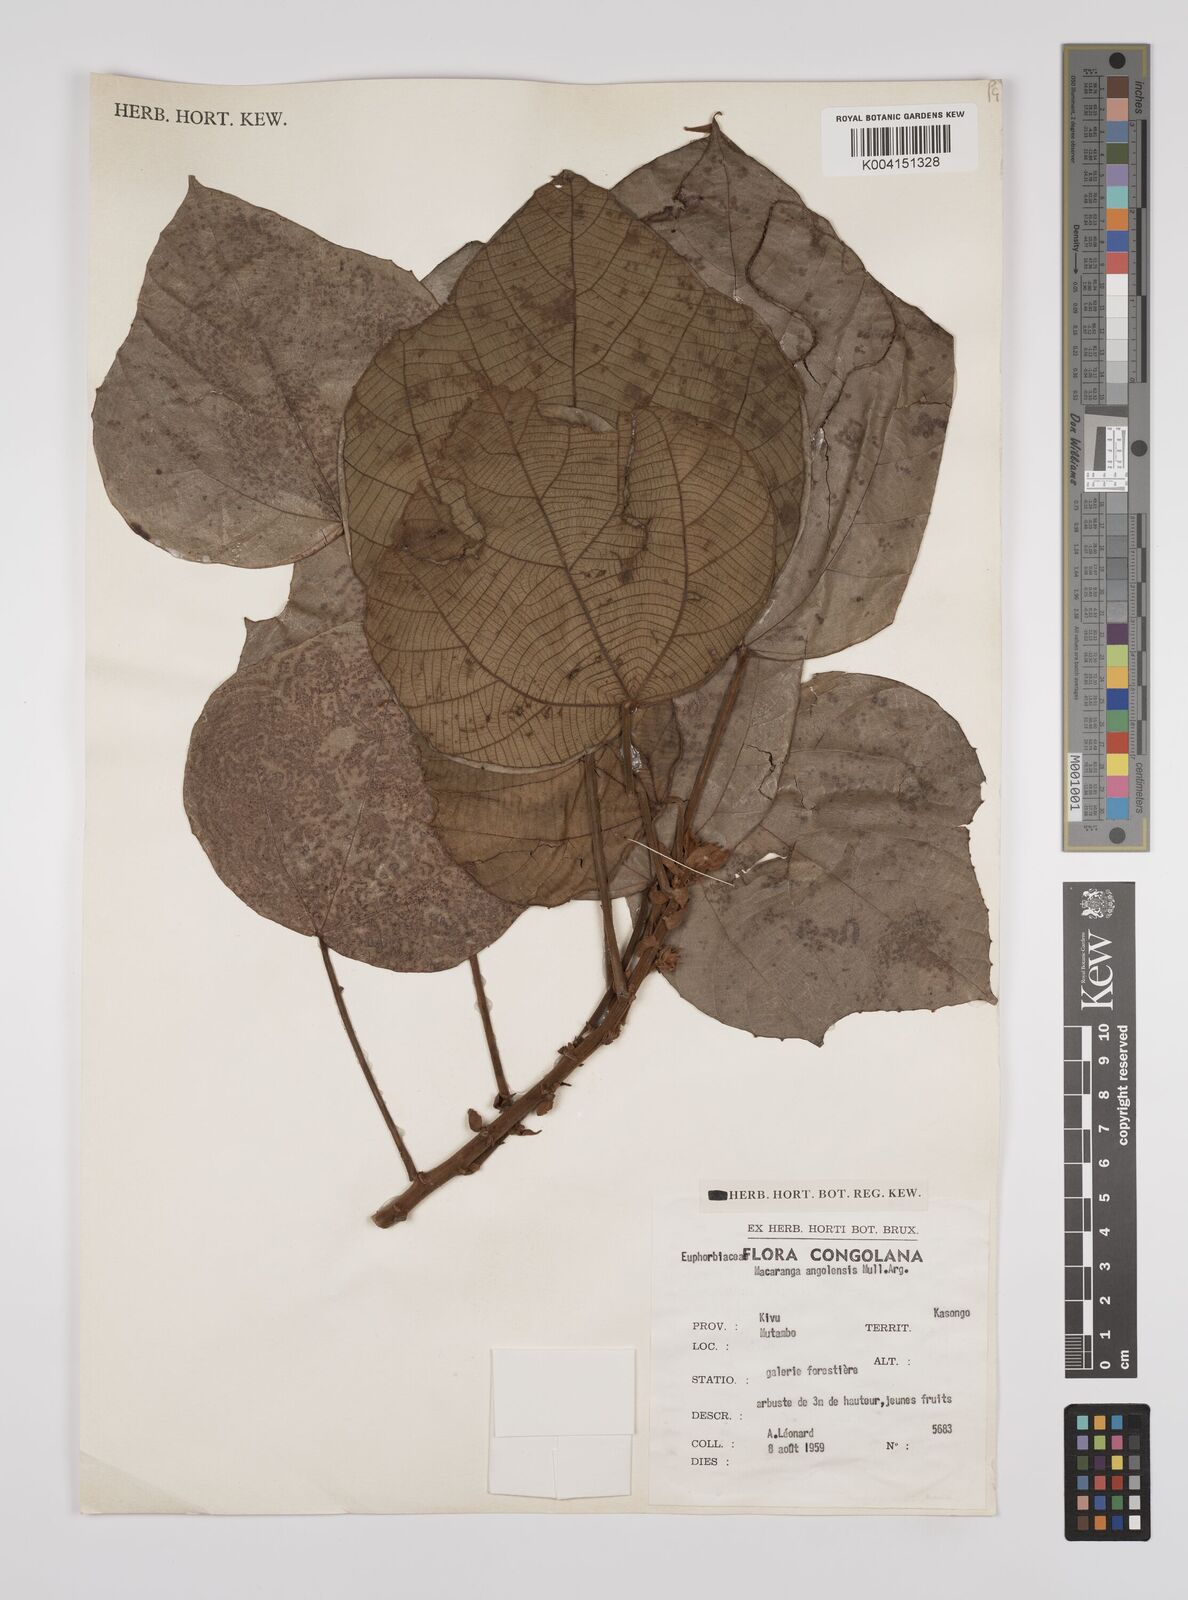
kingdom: Plantae
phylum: Tracheophyta
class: Magnoliopsida
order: Malpighiales
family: Euphorbiaceae
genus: Macaranga
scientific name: Macaranga angolensis
